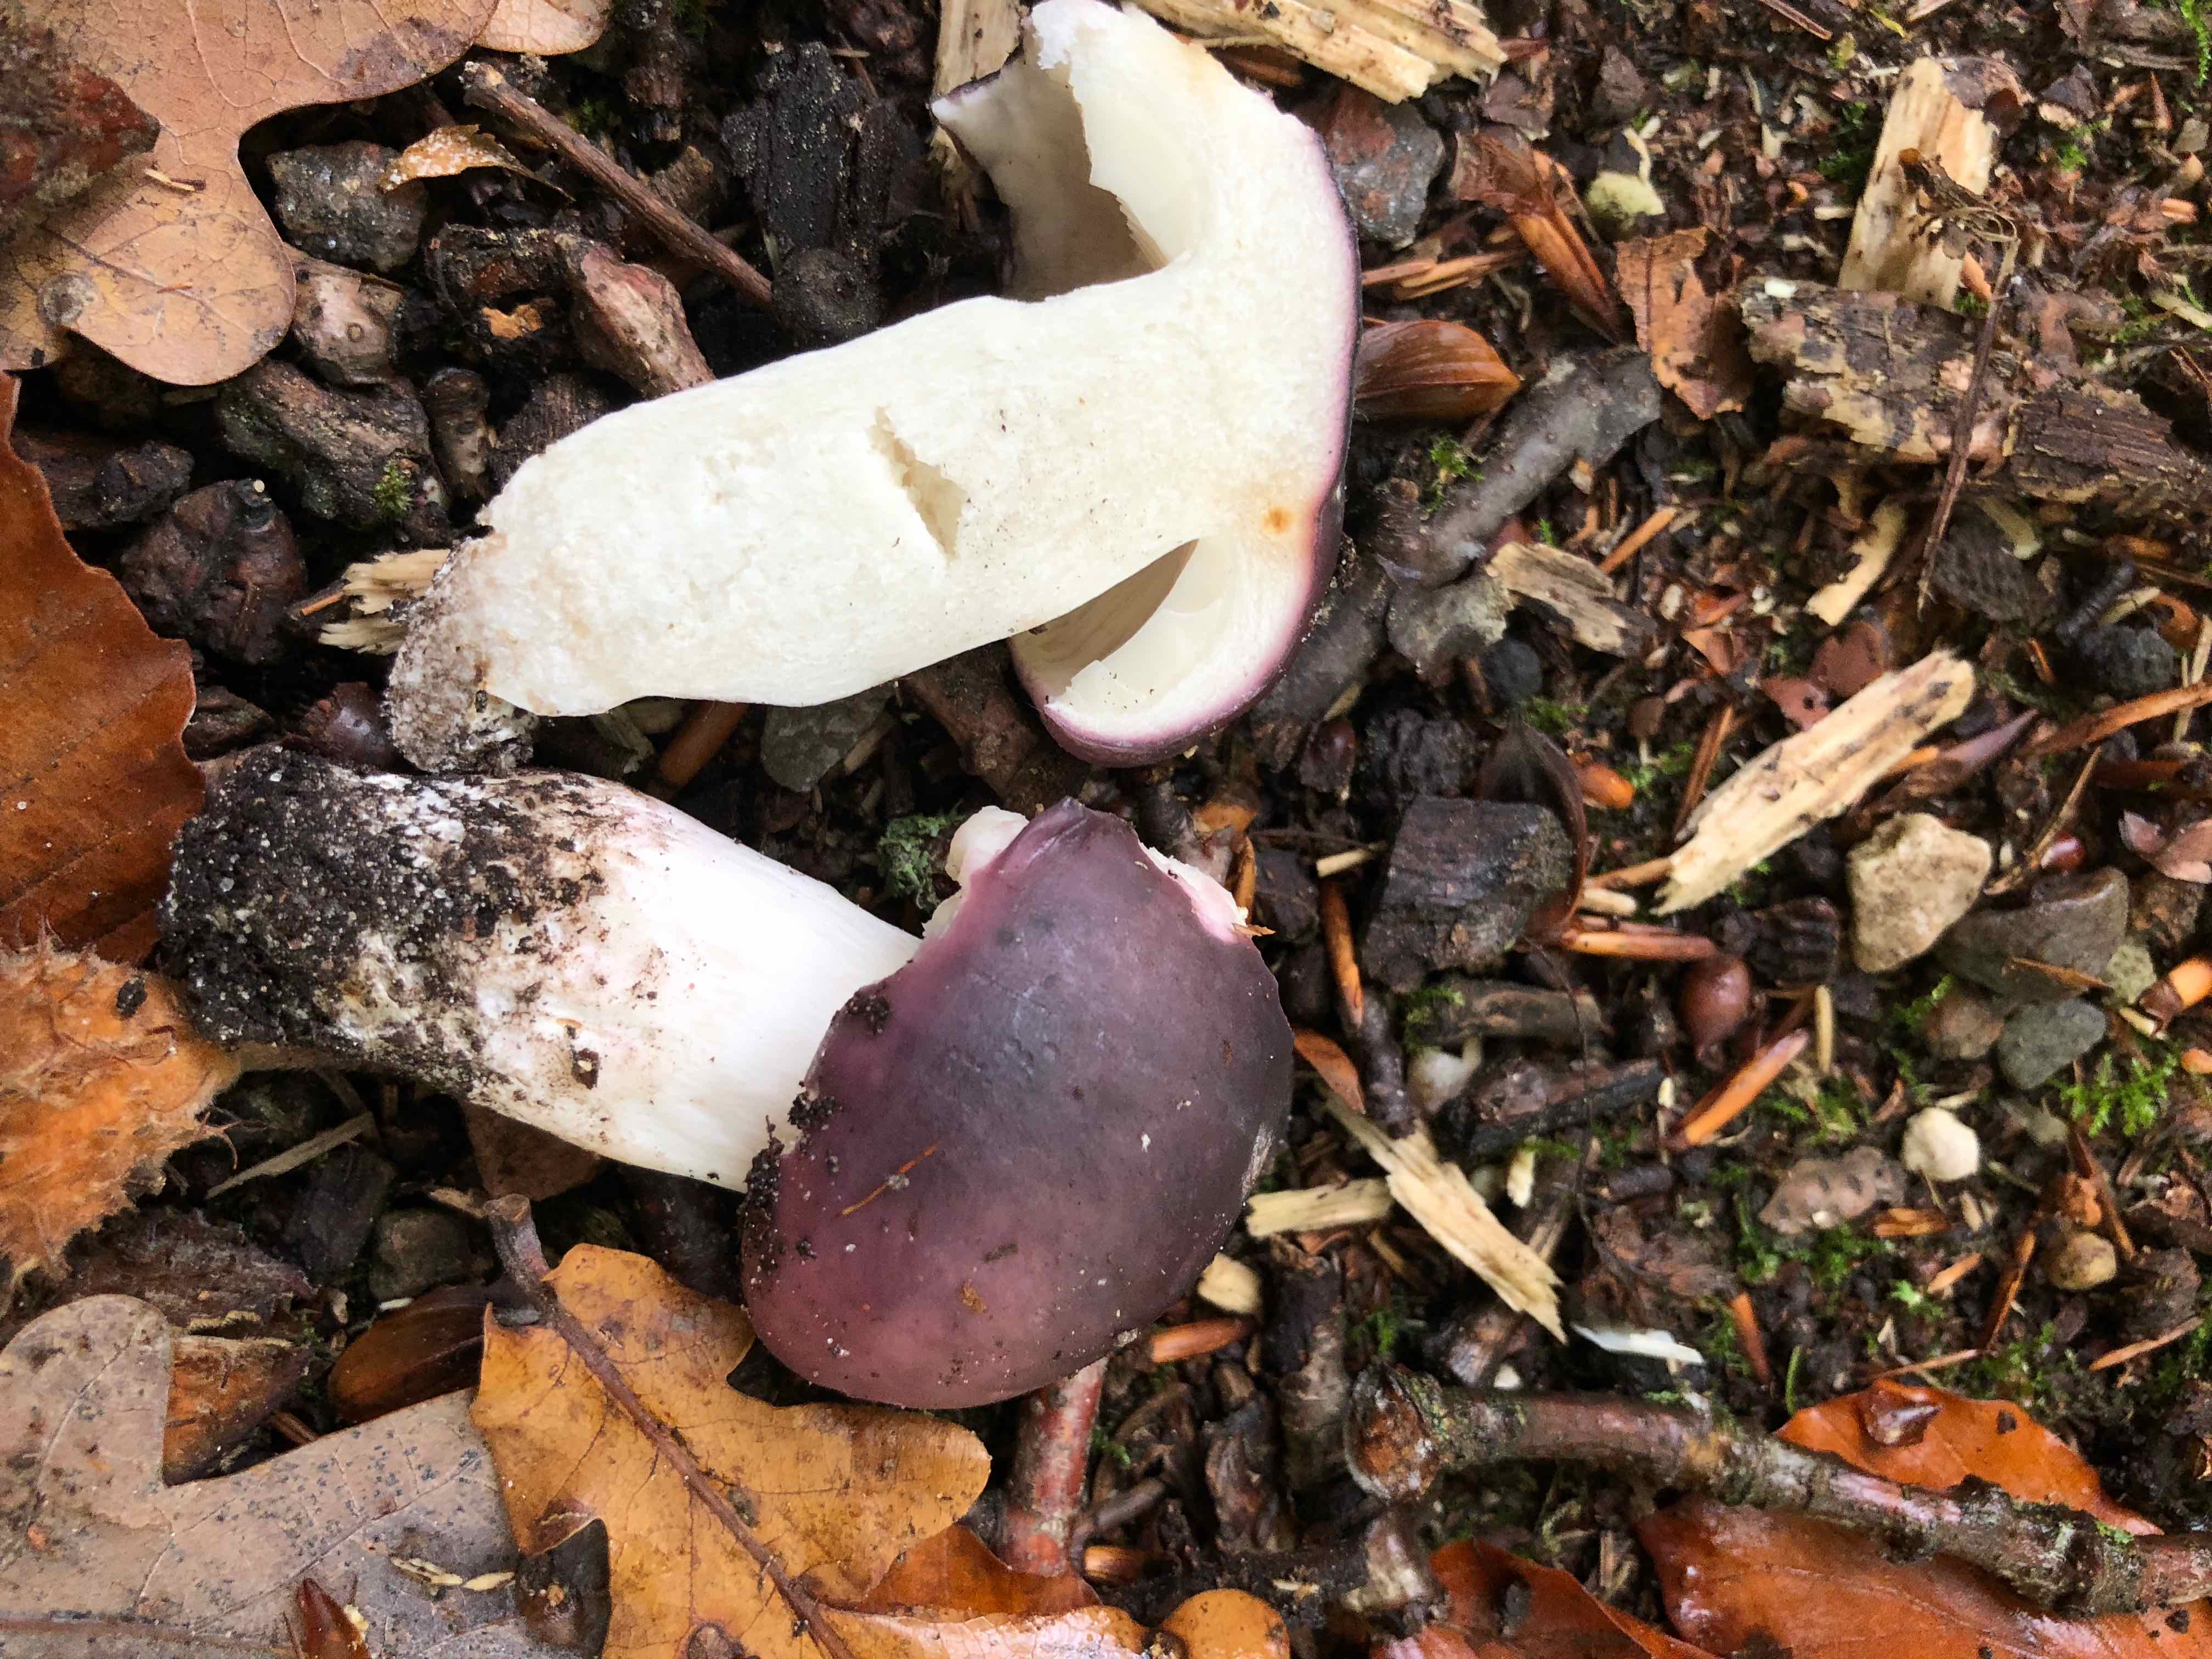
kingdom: Fungi
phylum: Basidiomycota
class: Agaricomycetes
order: Russulales
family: Russulaceae
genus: Russula
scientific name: Russula
